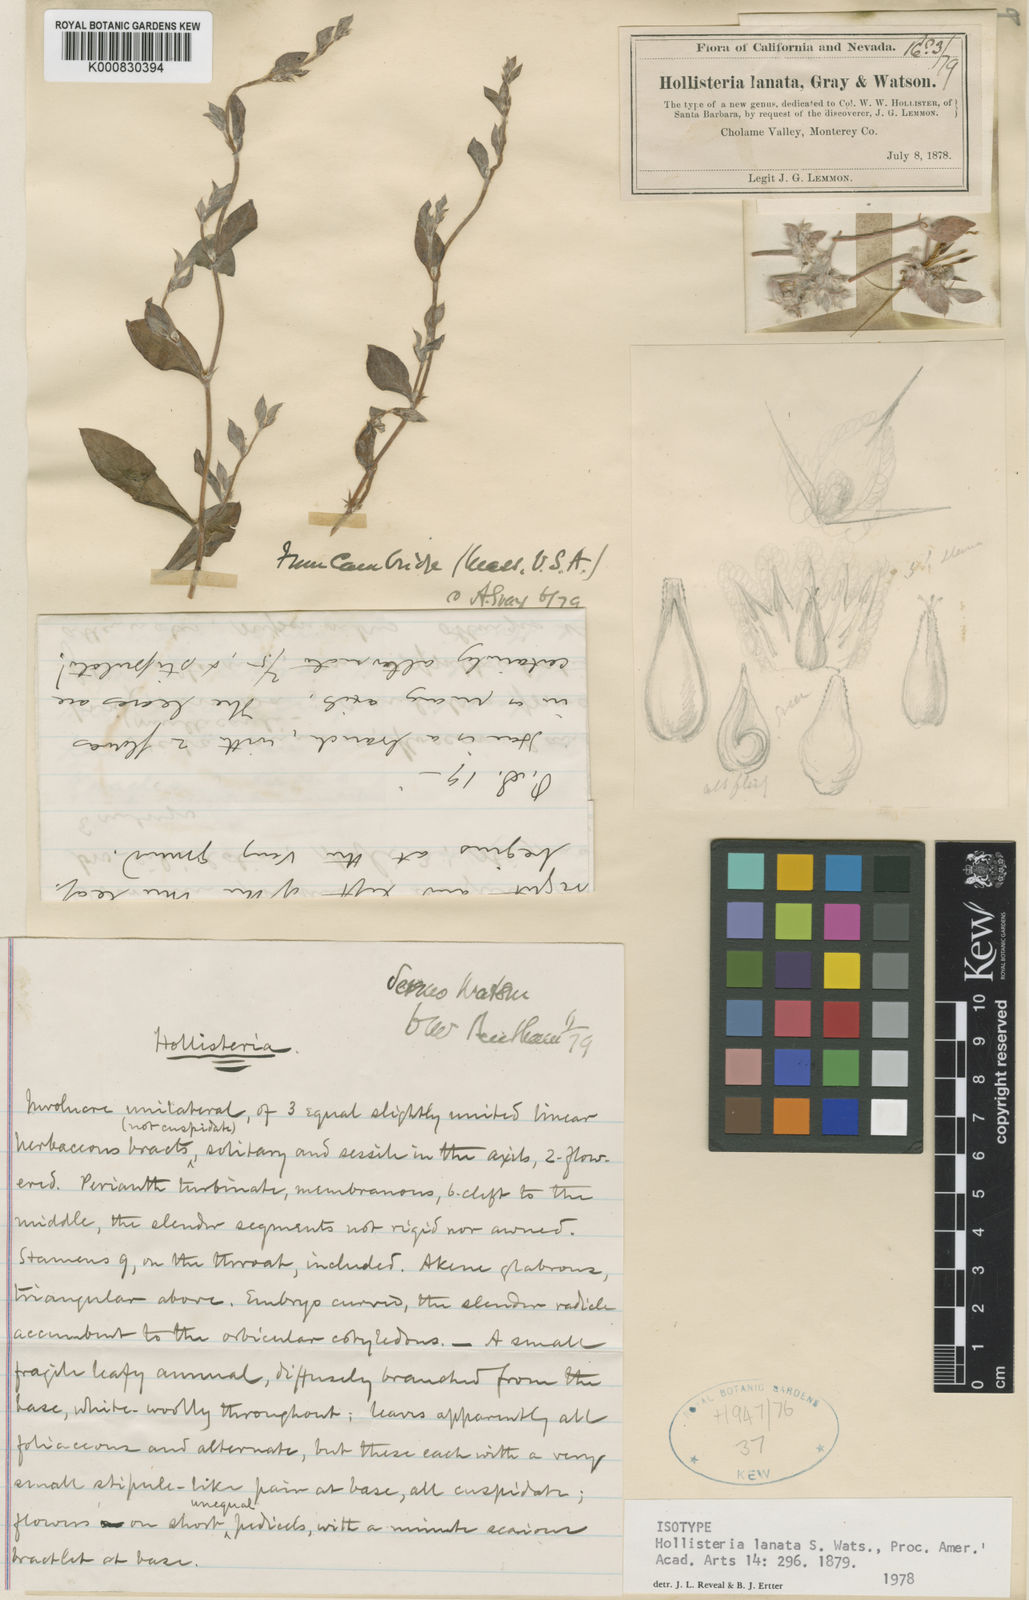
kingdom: Plantae
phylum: Tracheophyta
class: Magnoliopsida
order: Caryophyllales
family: Polygonaceae
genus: Hollisteria
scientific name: Hollisteria lanata
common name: False spike-flower
